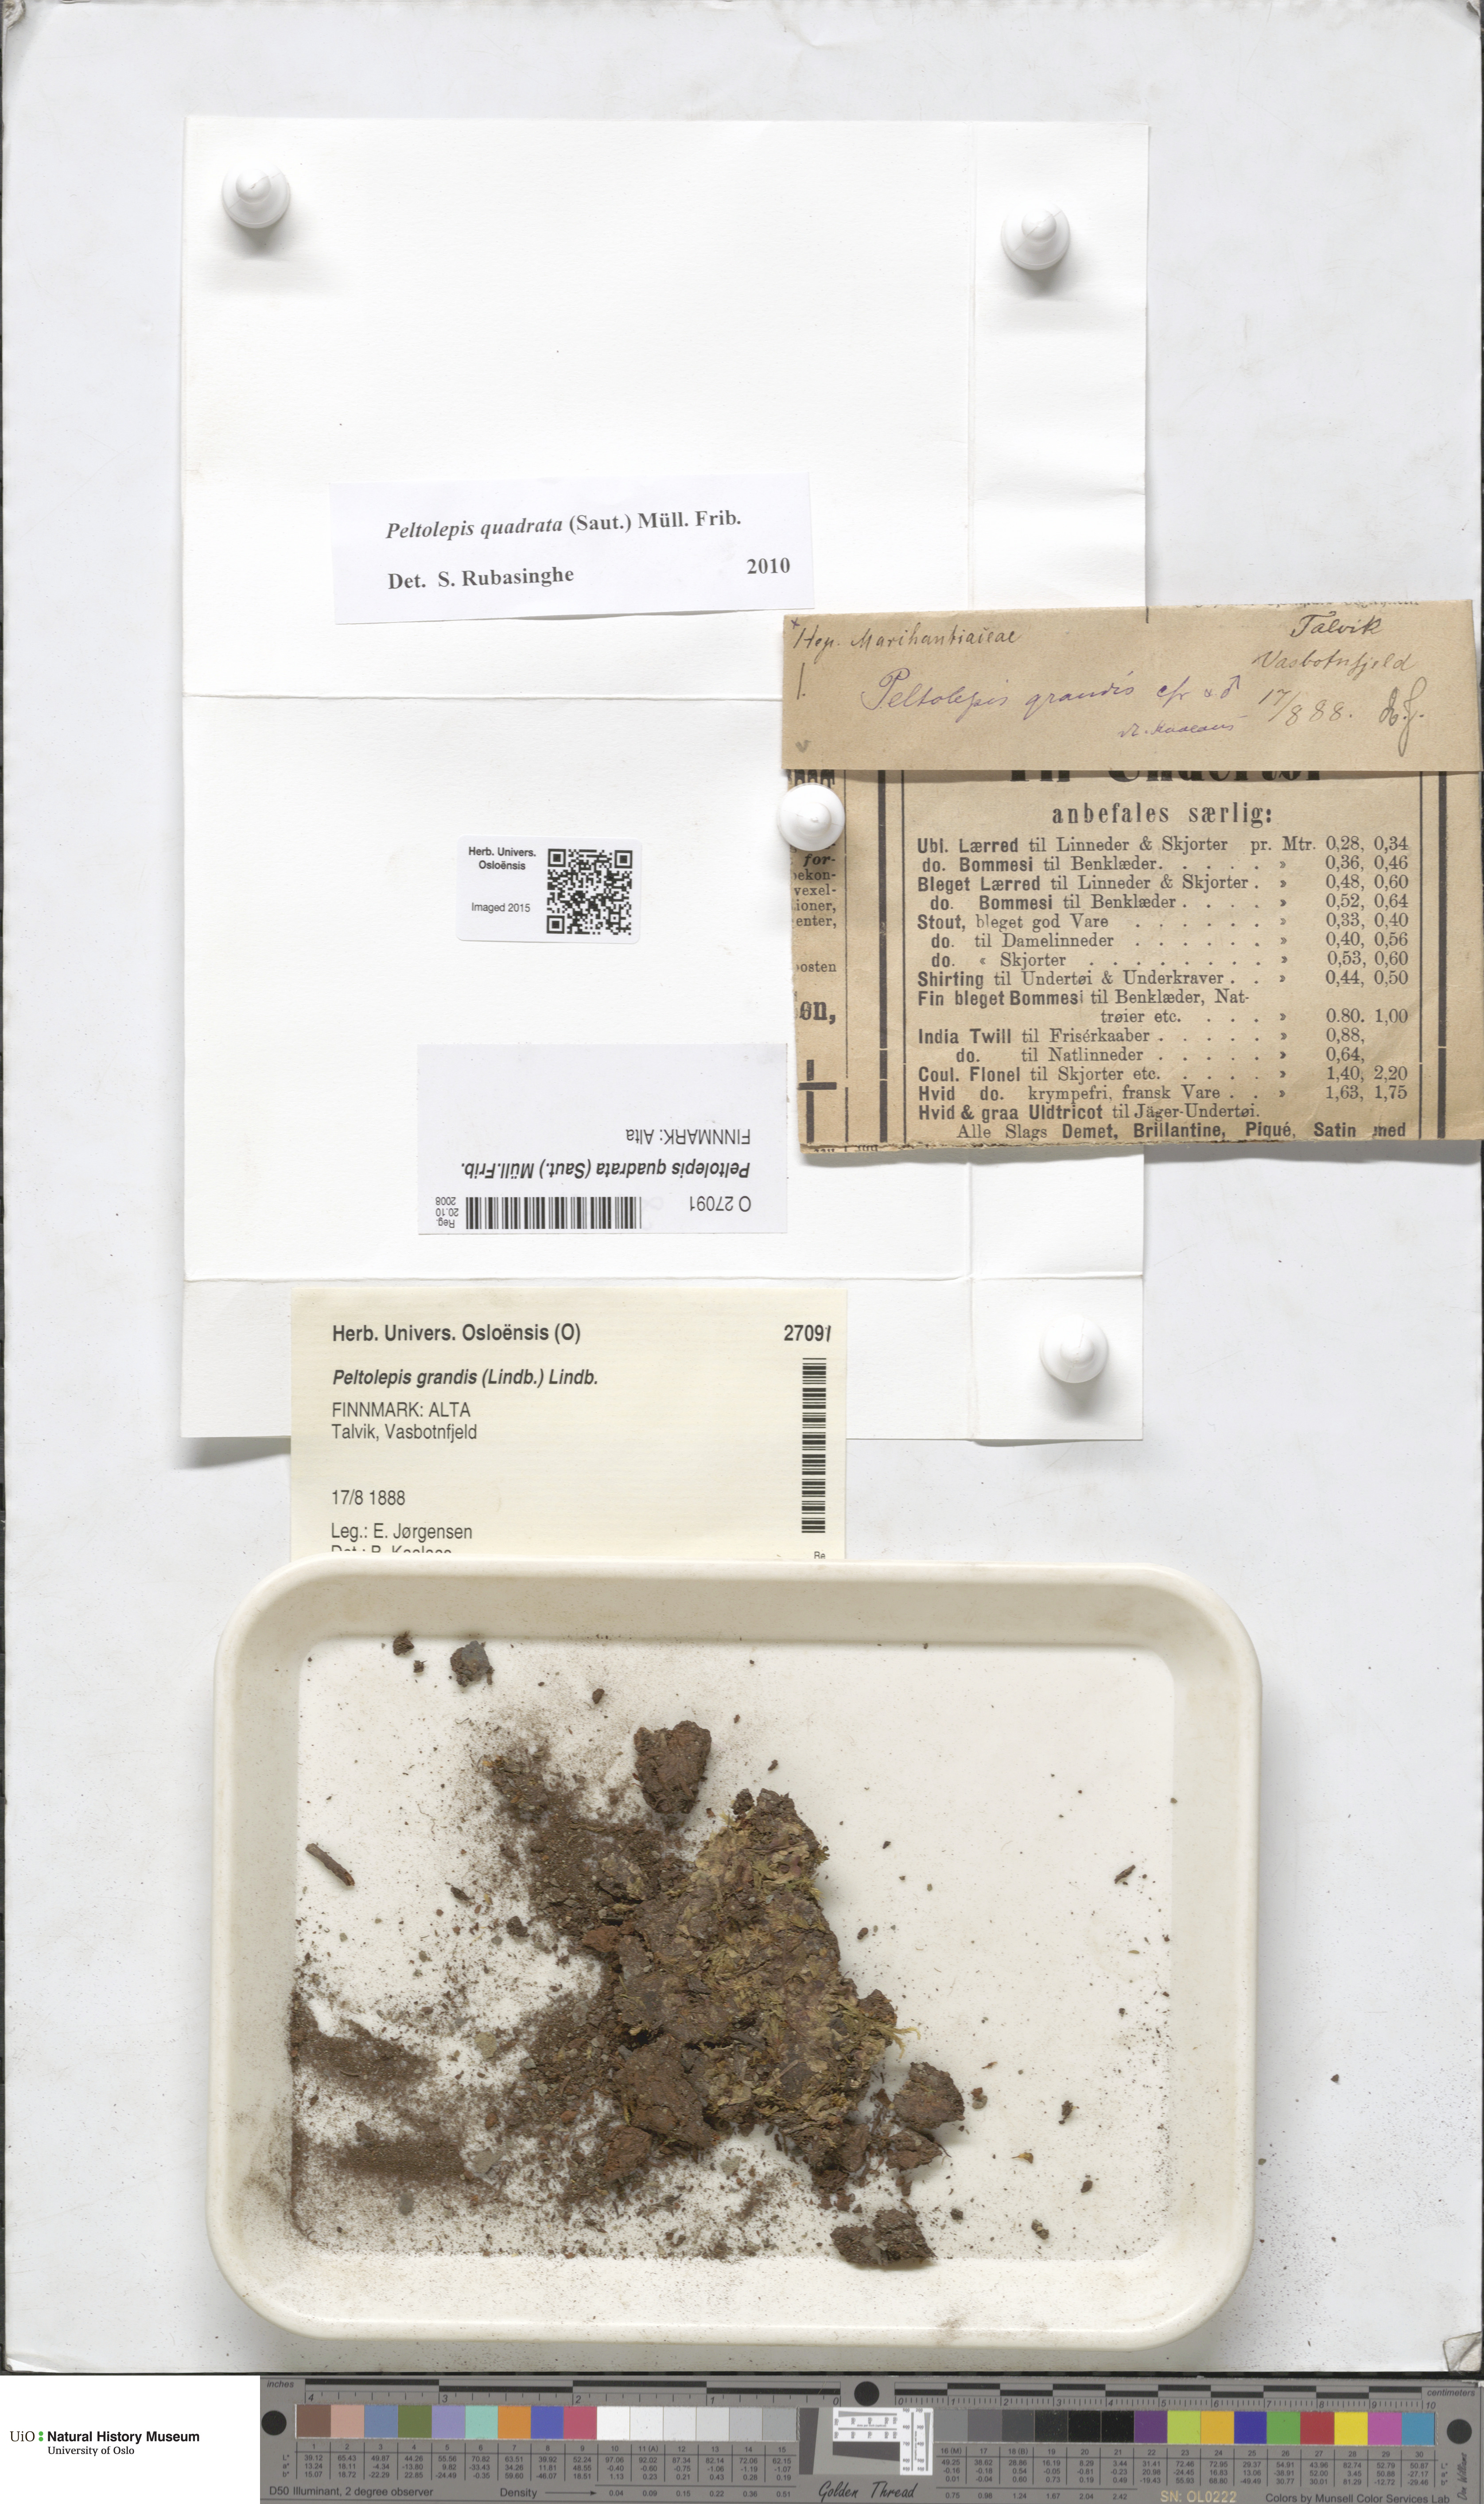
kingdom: Plantae
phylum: Marchantiophyta
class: Marchantiopsida
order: Marchantiales
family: Cleveaceae
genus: Peltolepis
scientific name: Peltolepis quadrata
